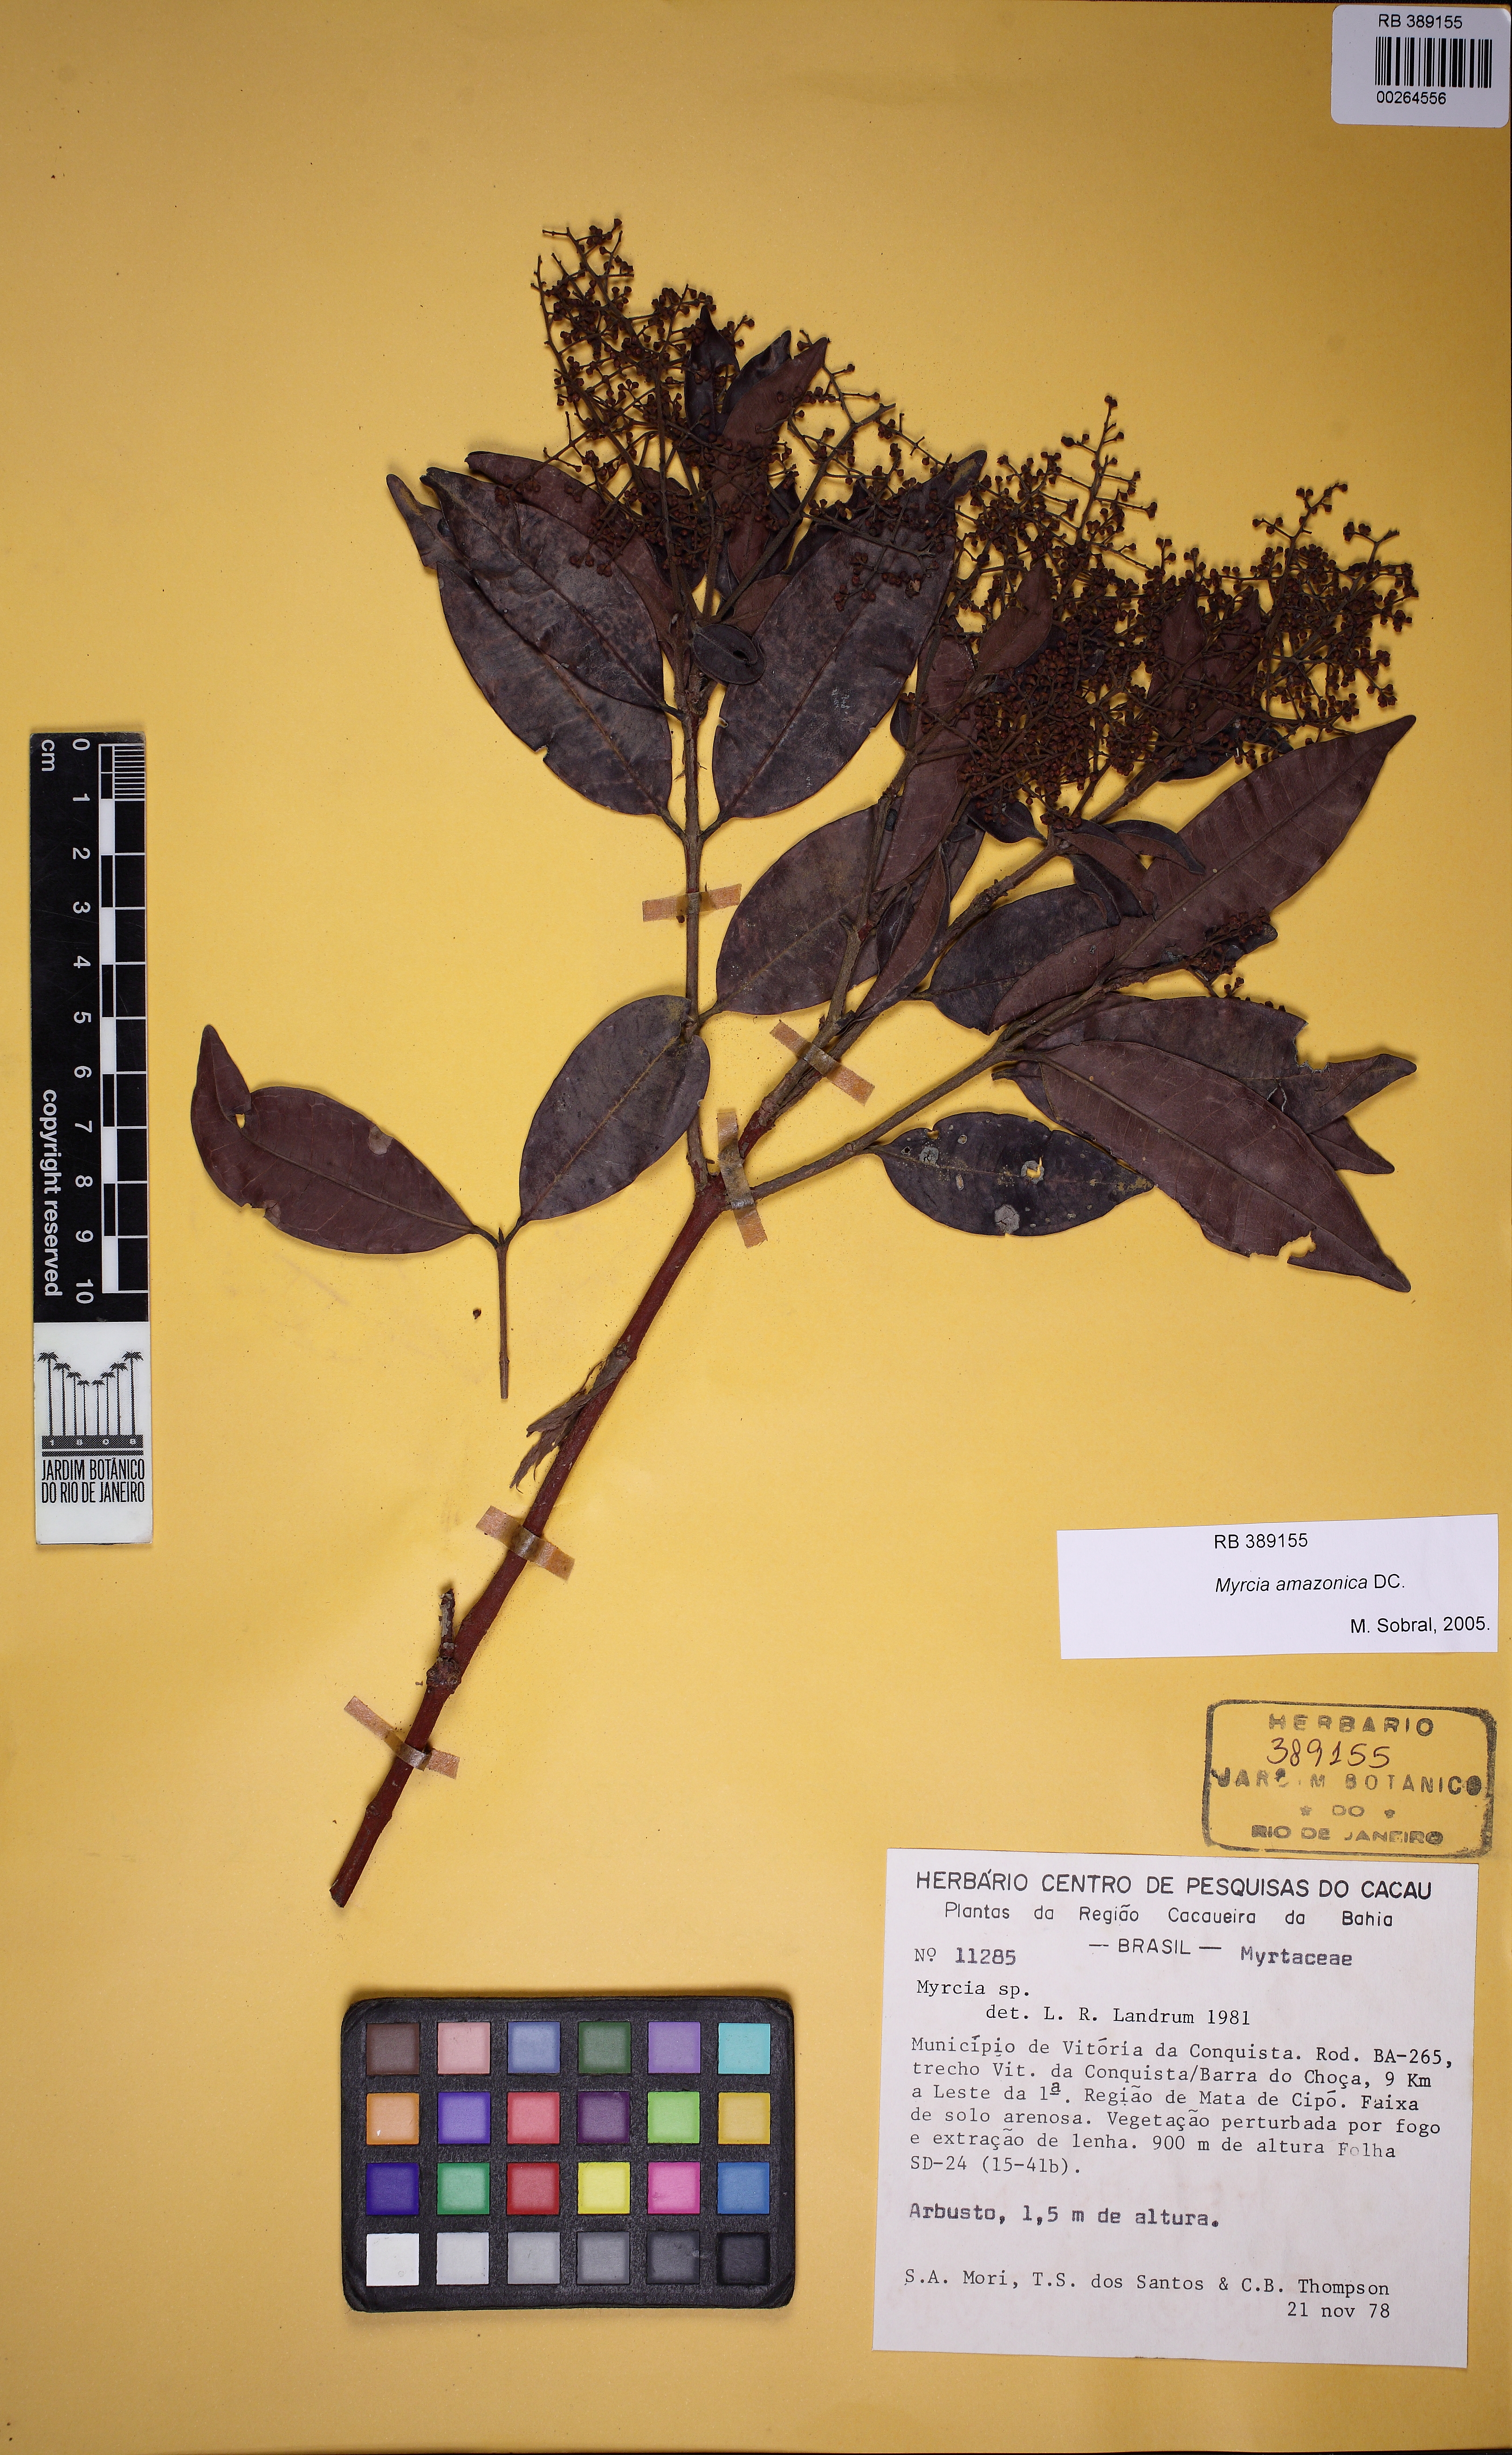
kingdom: Plantae
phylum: Tracheophyta
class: Magnoliopsida
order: Myrtales
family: Myrtaceae
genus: Myrcia
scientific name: Myrcia amazonica
